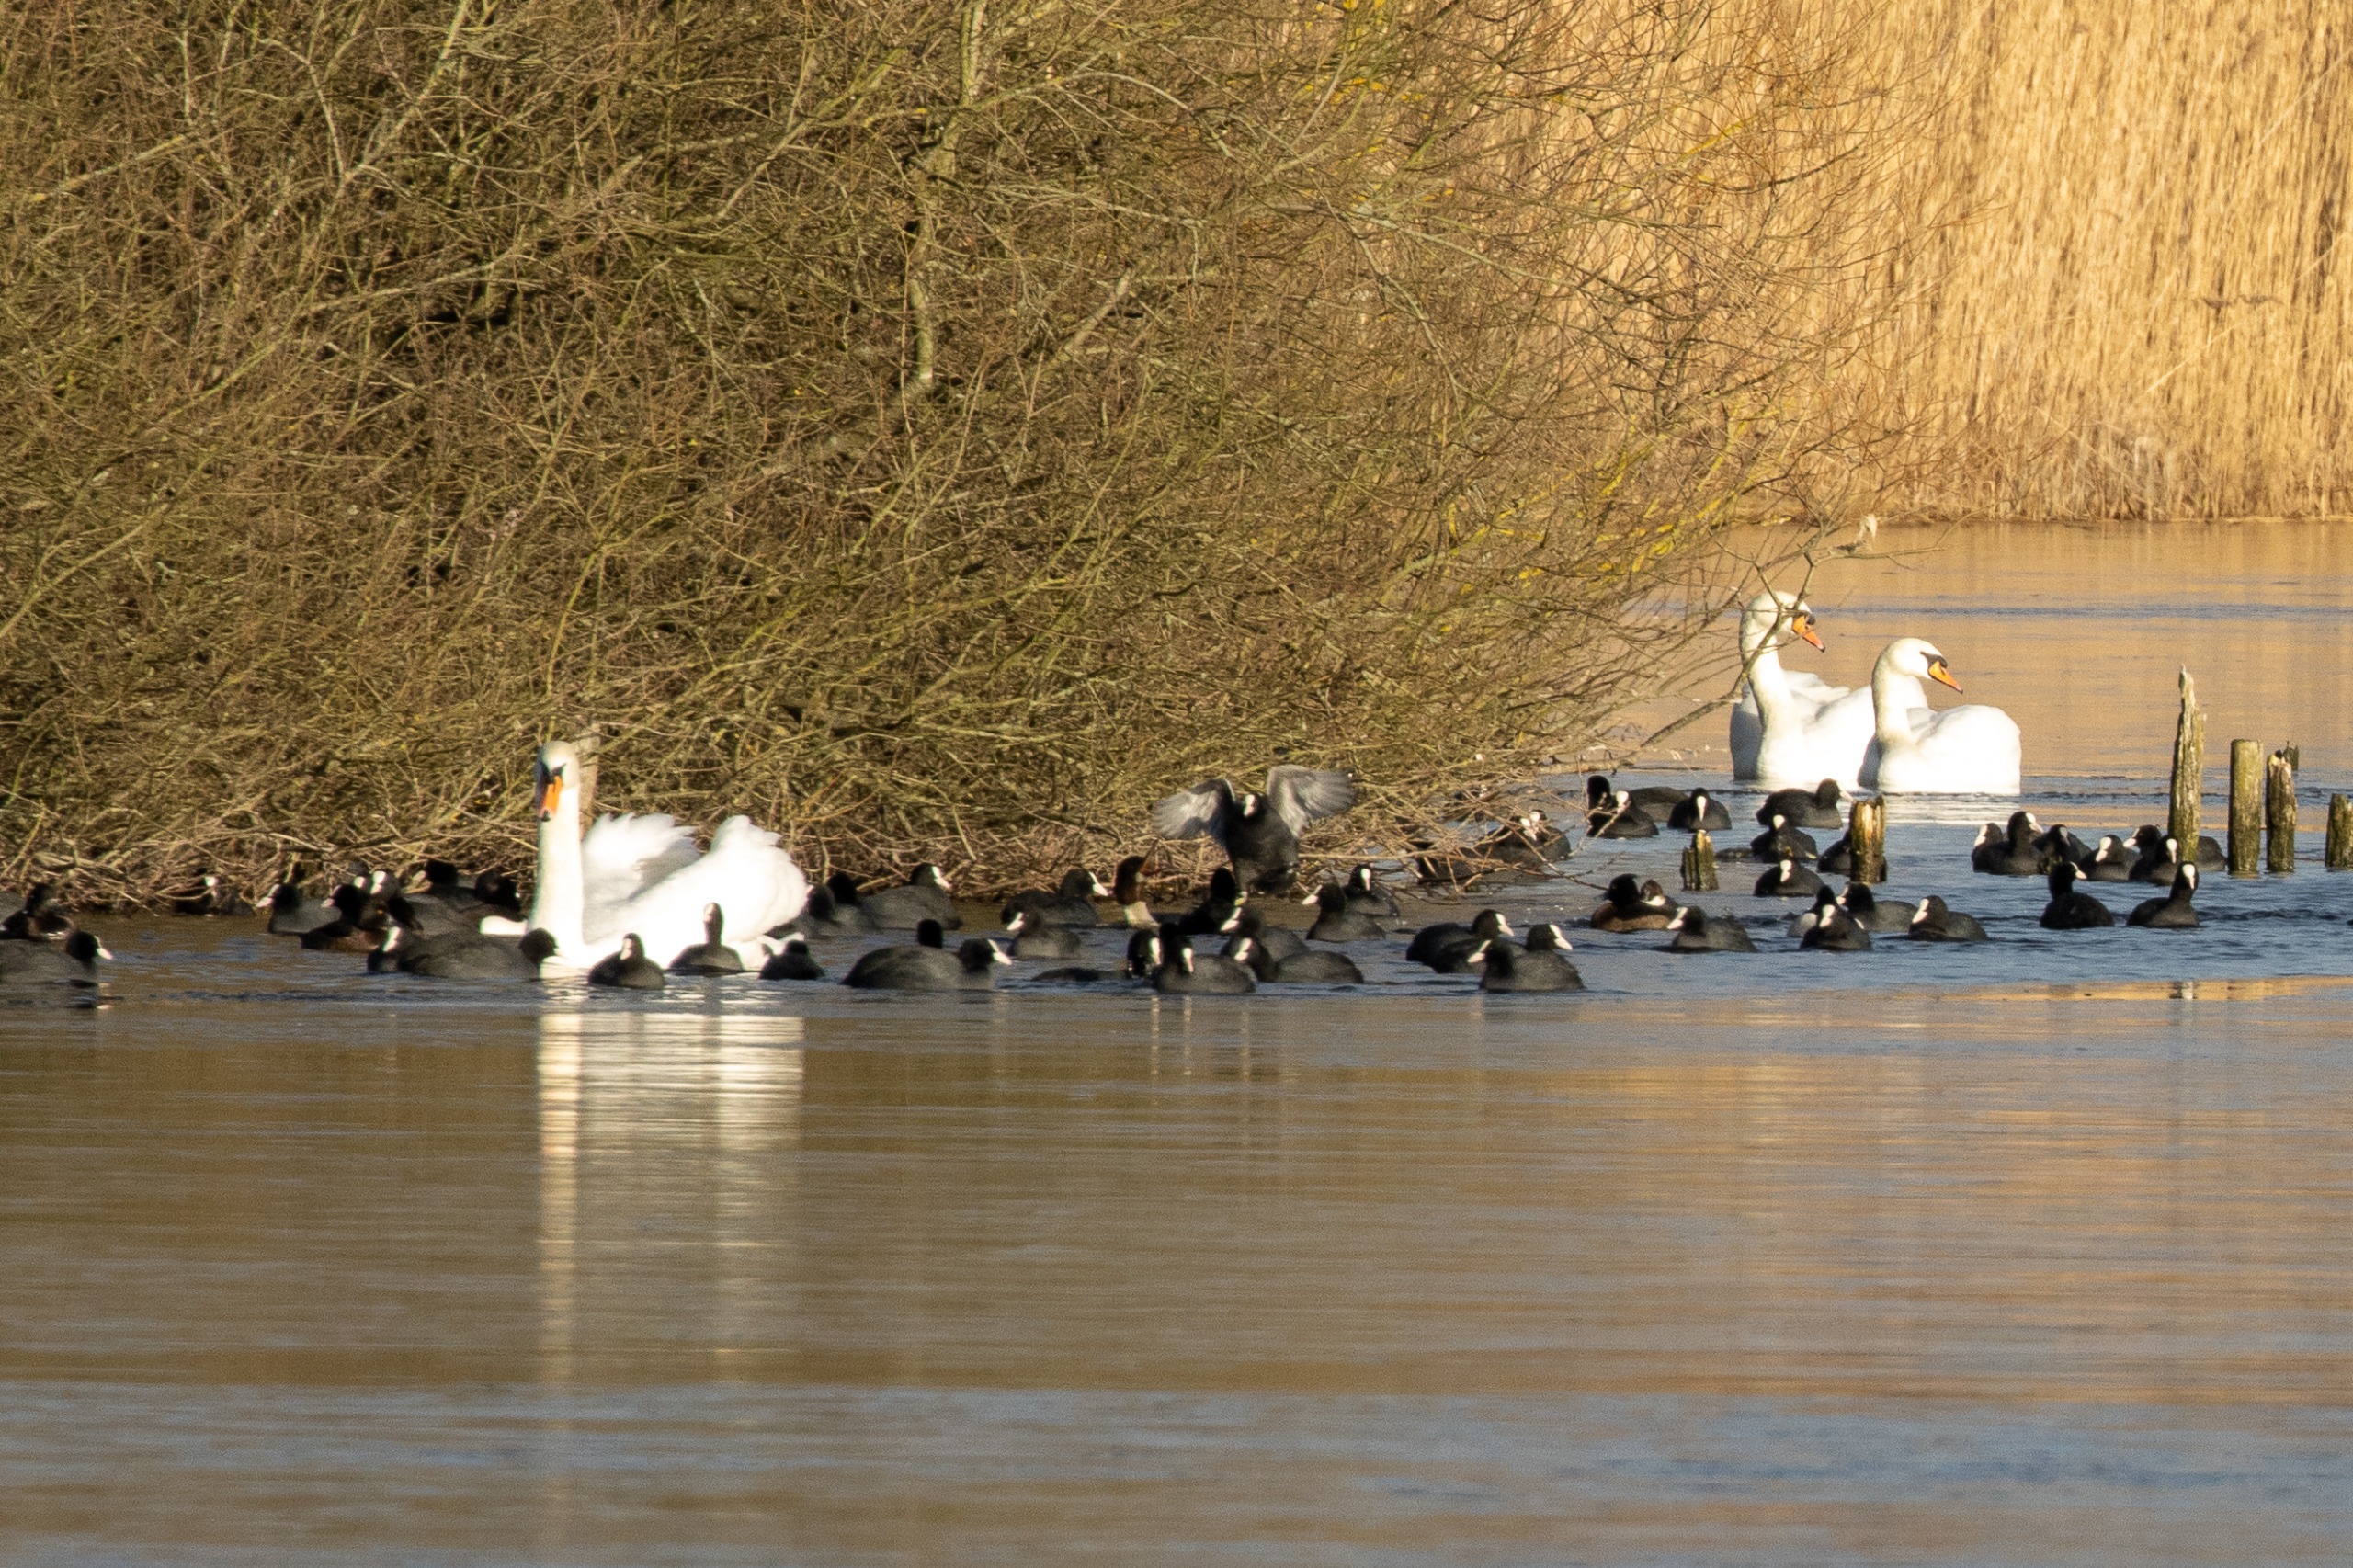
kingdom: Animalia
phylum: Chordata
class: Aves
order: Anseriformes
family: Anatidae
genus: Cygnus
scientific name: Cygnus olor
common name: Knopsvane
